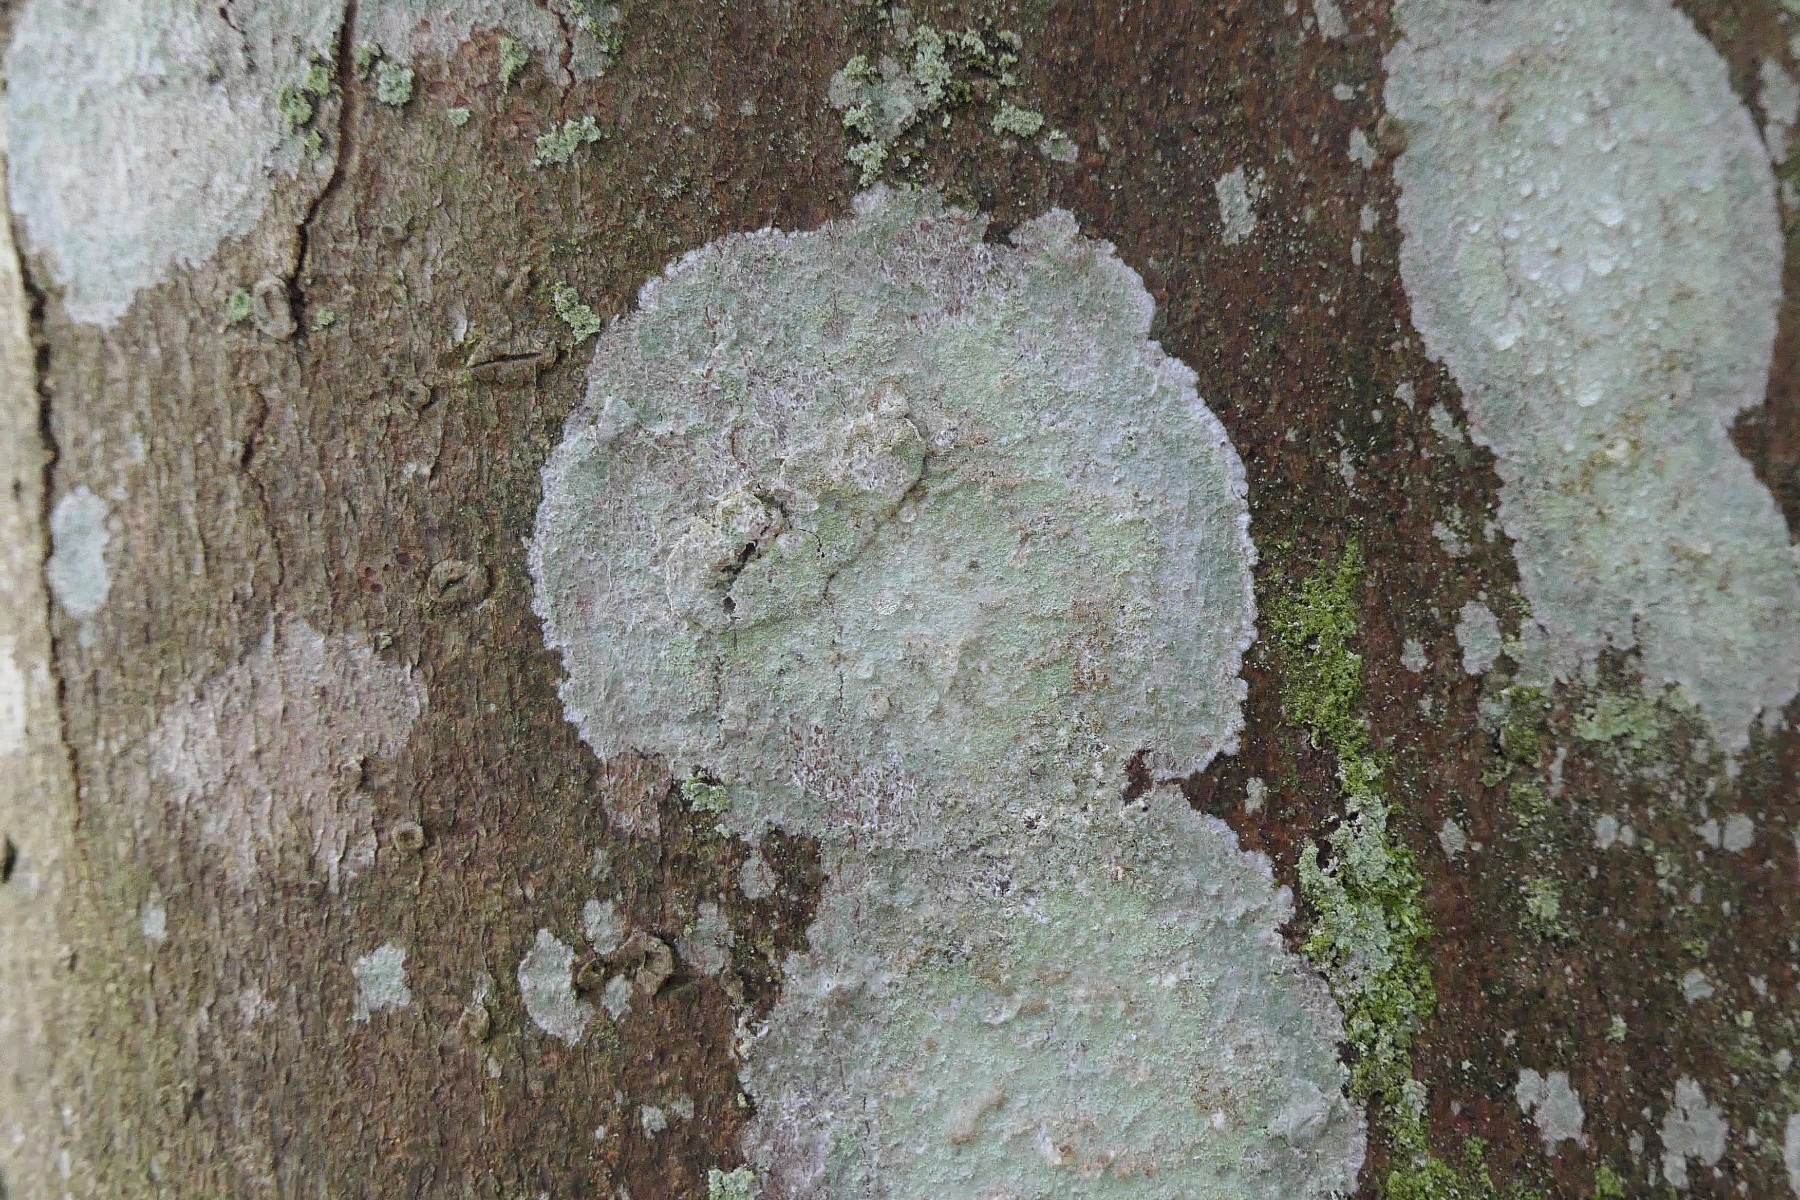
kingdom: Fungi
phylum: Ascomycota
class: Lecanoromycetes
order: Ostropales
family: Phlyctidaceae
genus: Phlyctis
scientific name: Phlyctis argena
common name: almindelig sølvlav
